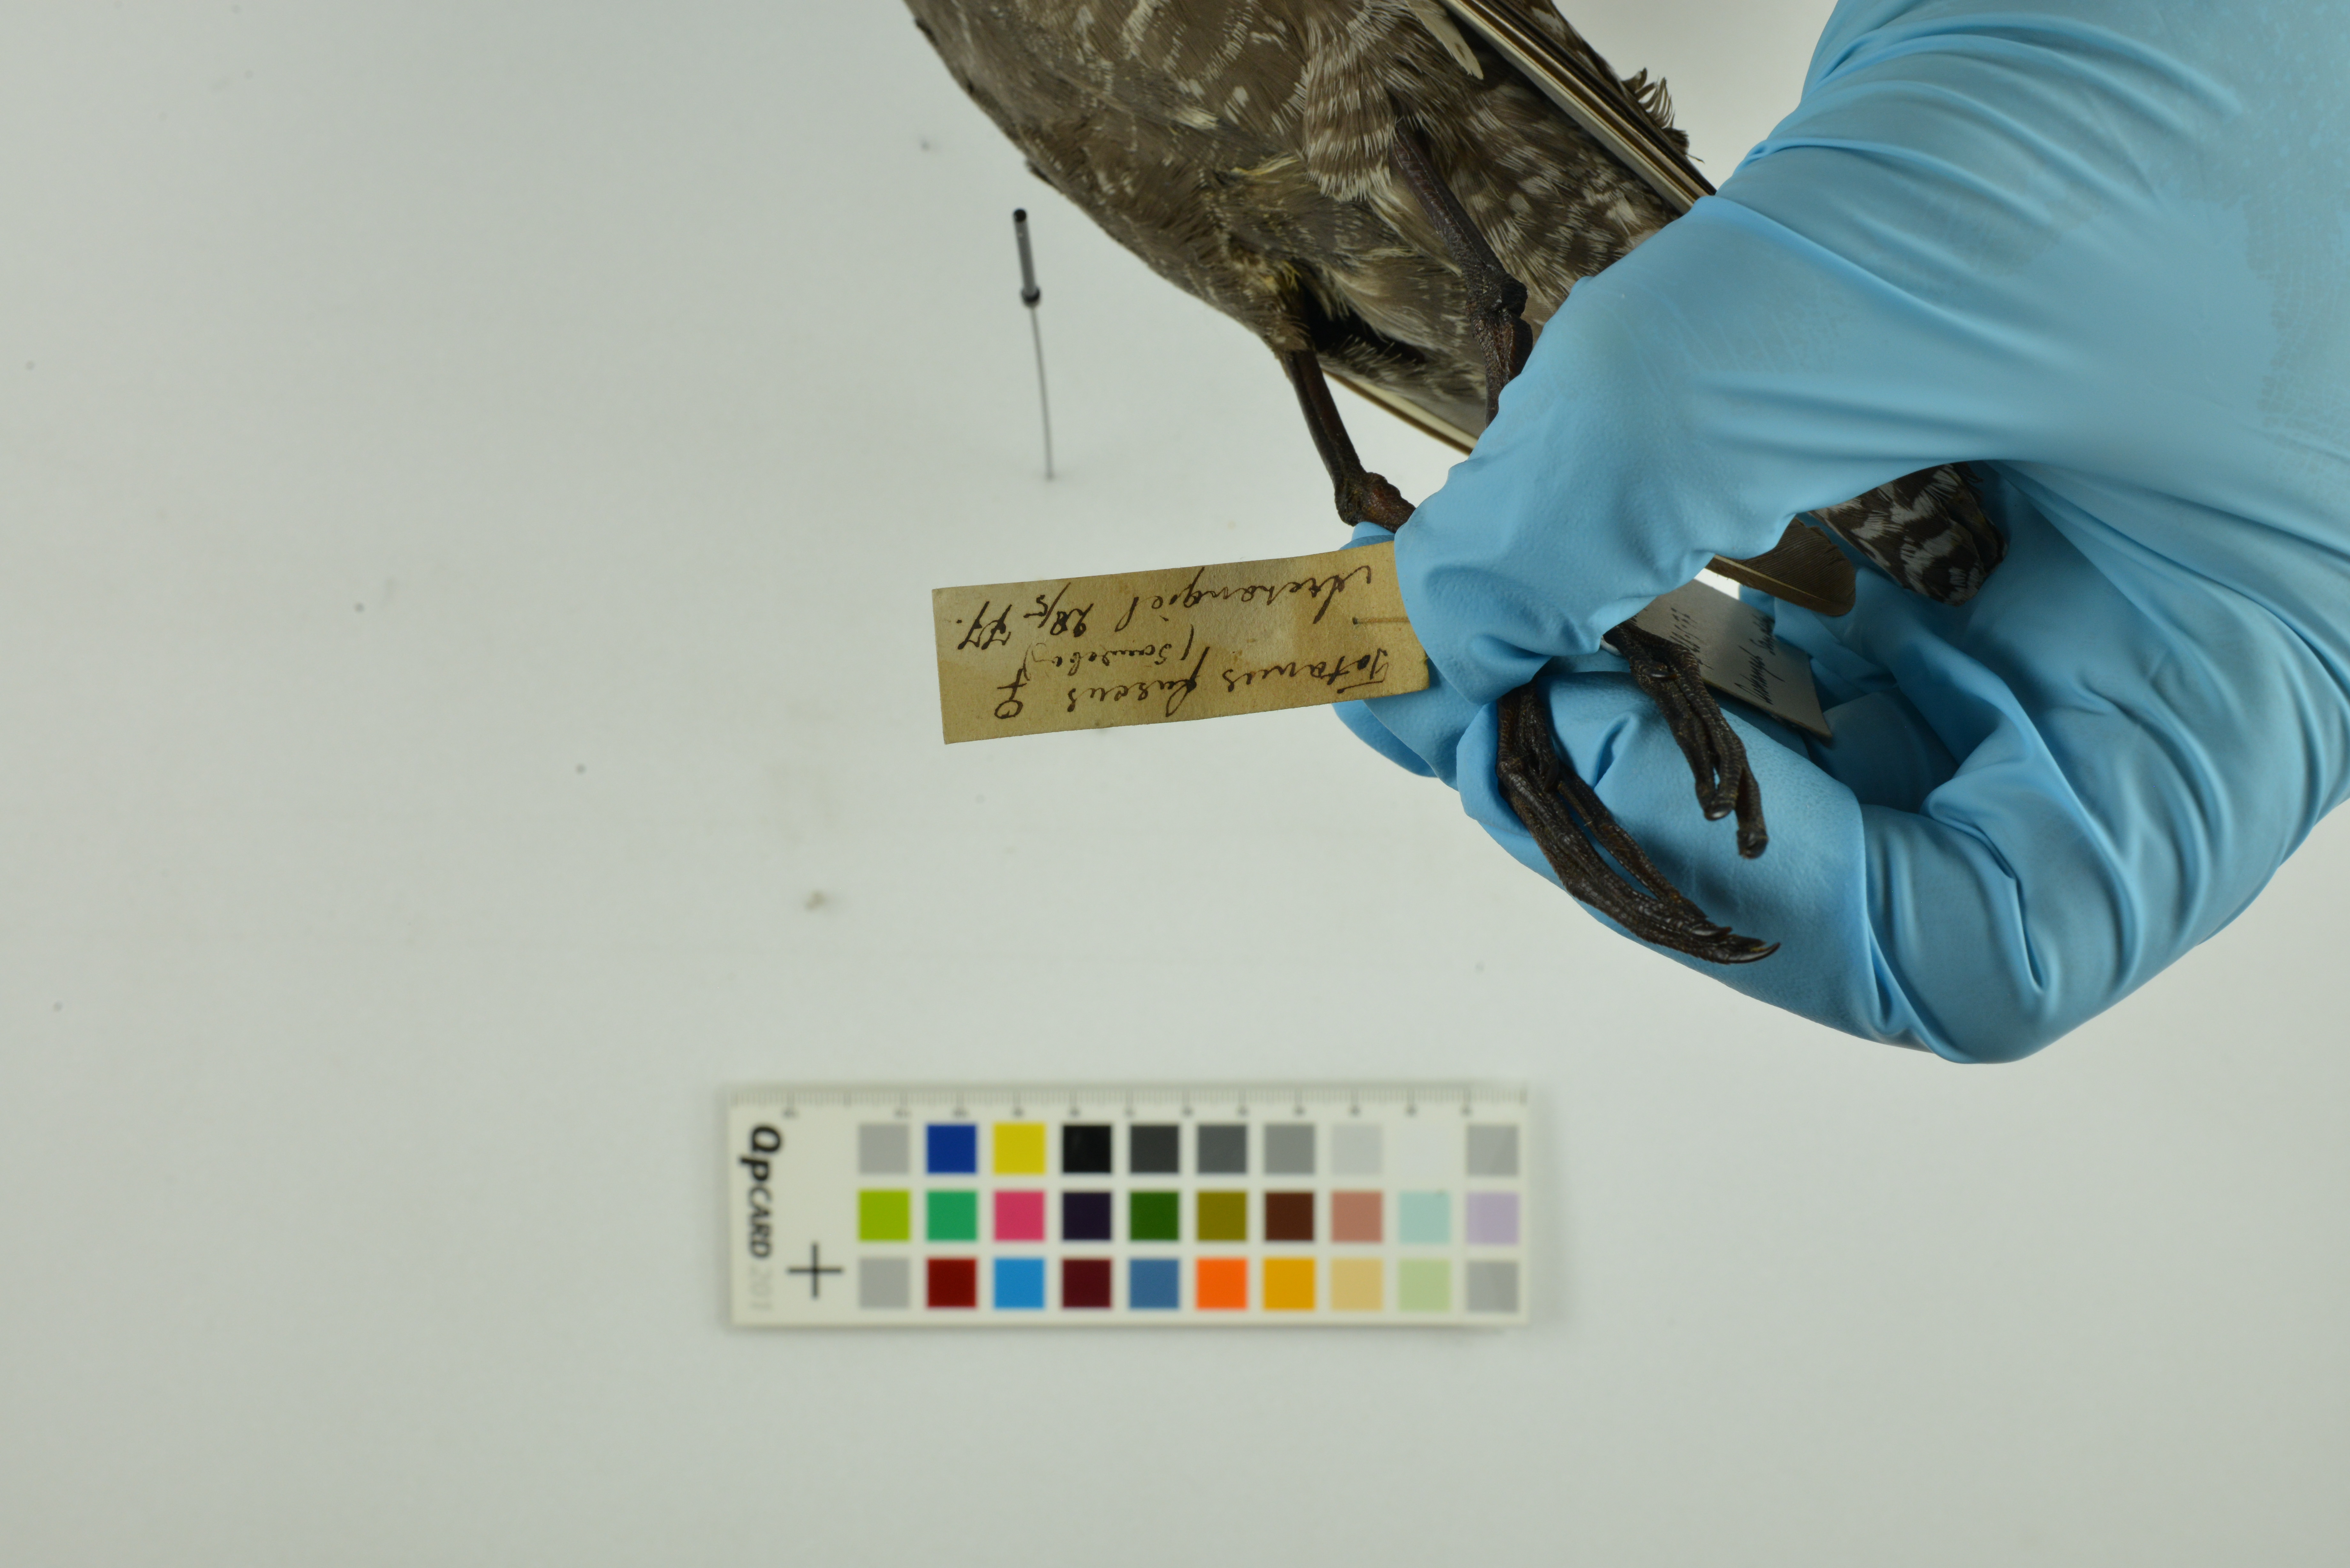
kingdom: Animalia
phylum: Chordata
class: Aves
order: Charadriiformes
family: Scolopacidae
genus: Tringa
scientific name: Tringa erythropus
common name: Spotted redshank
